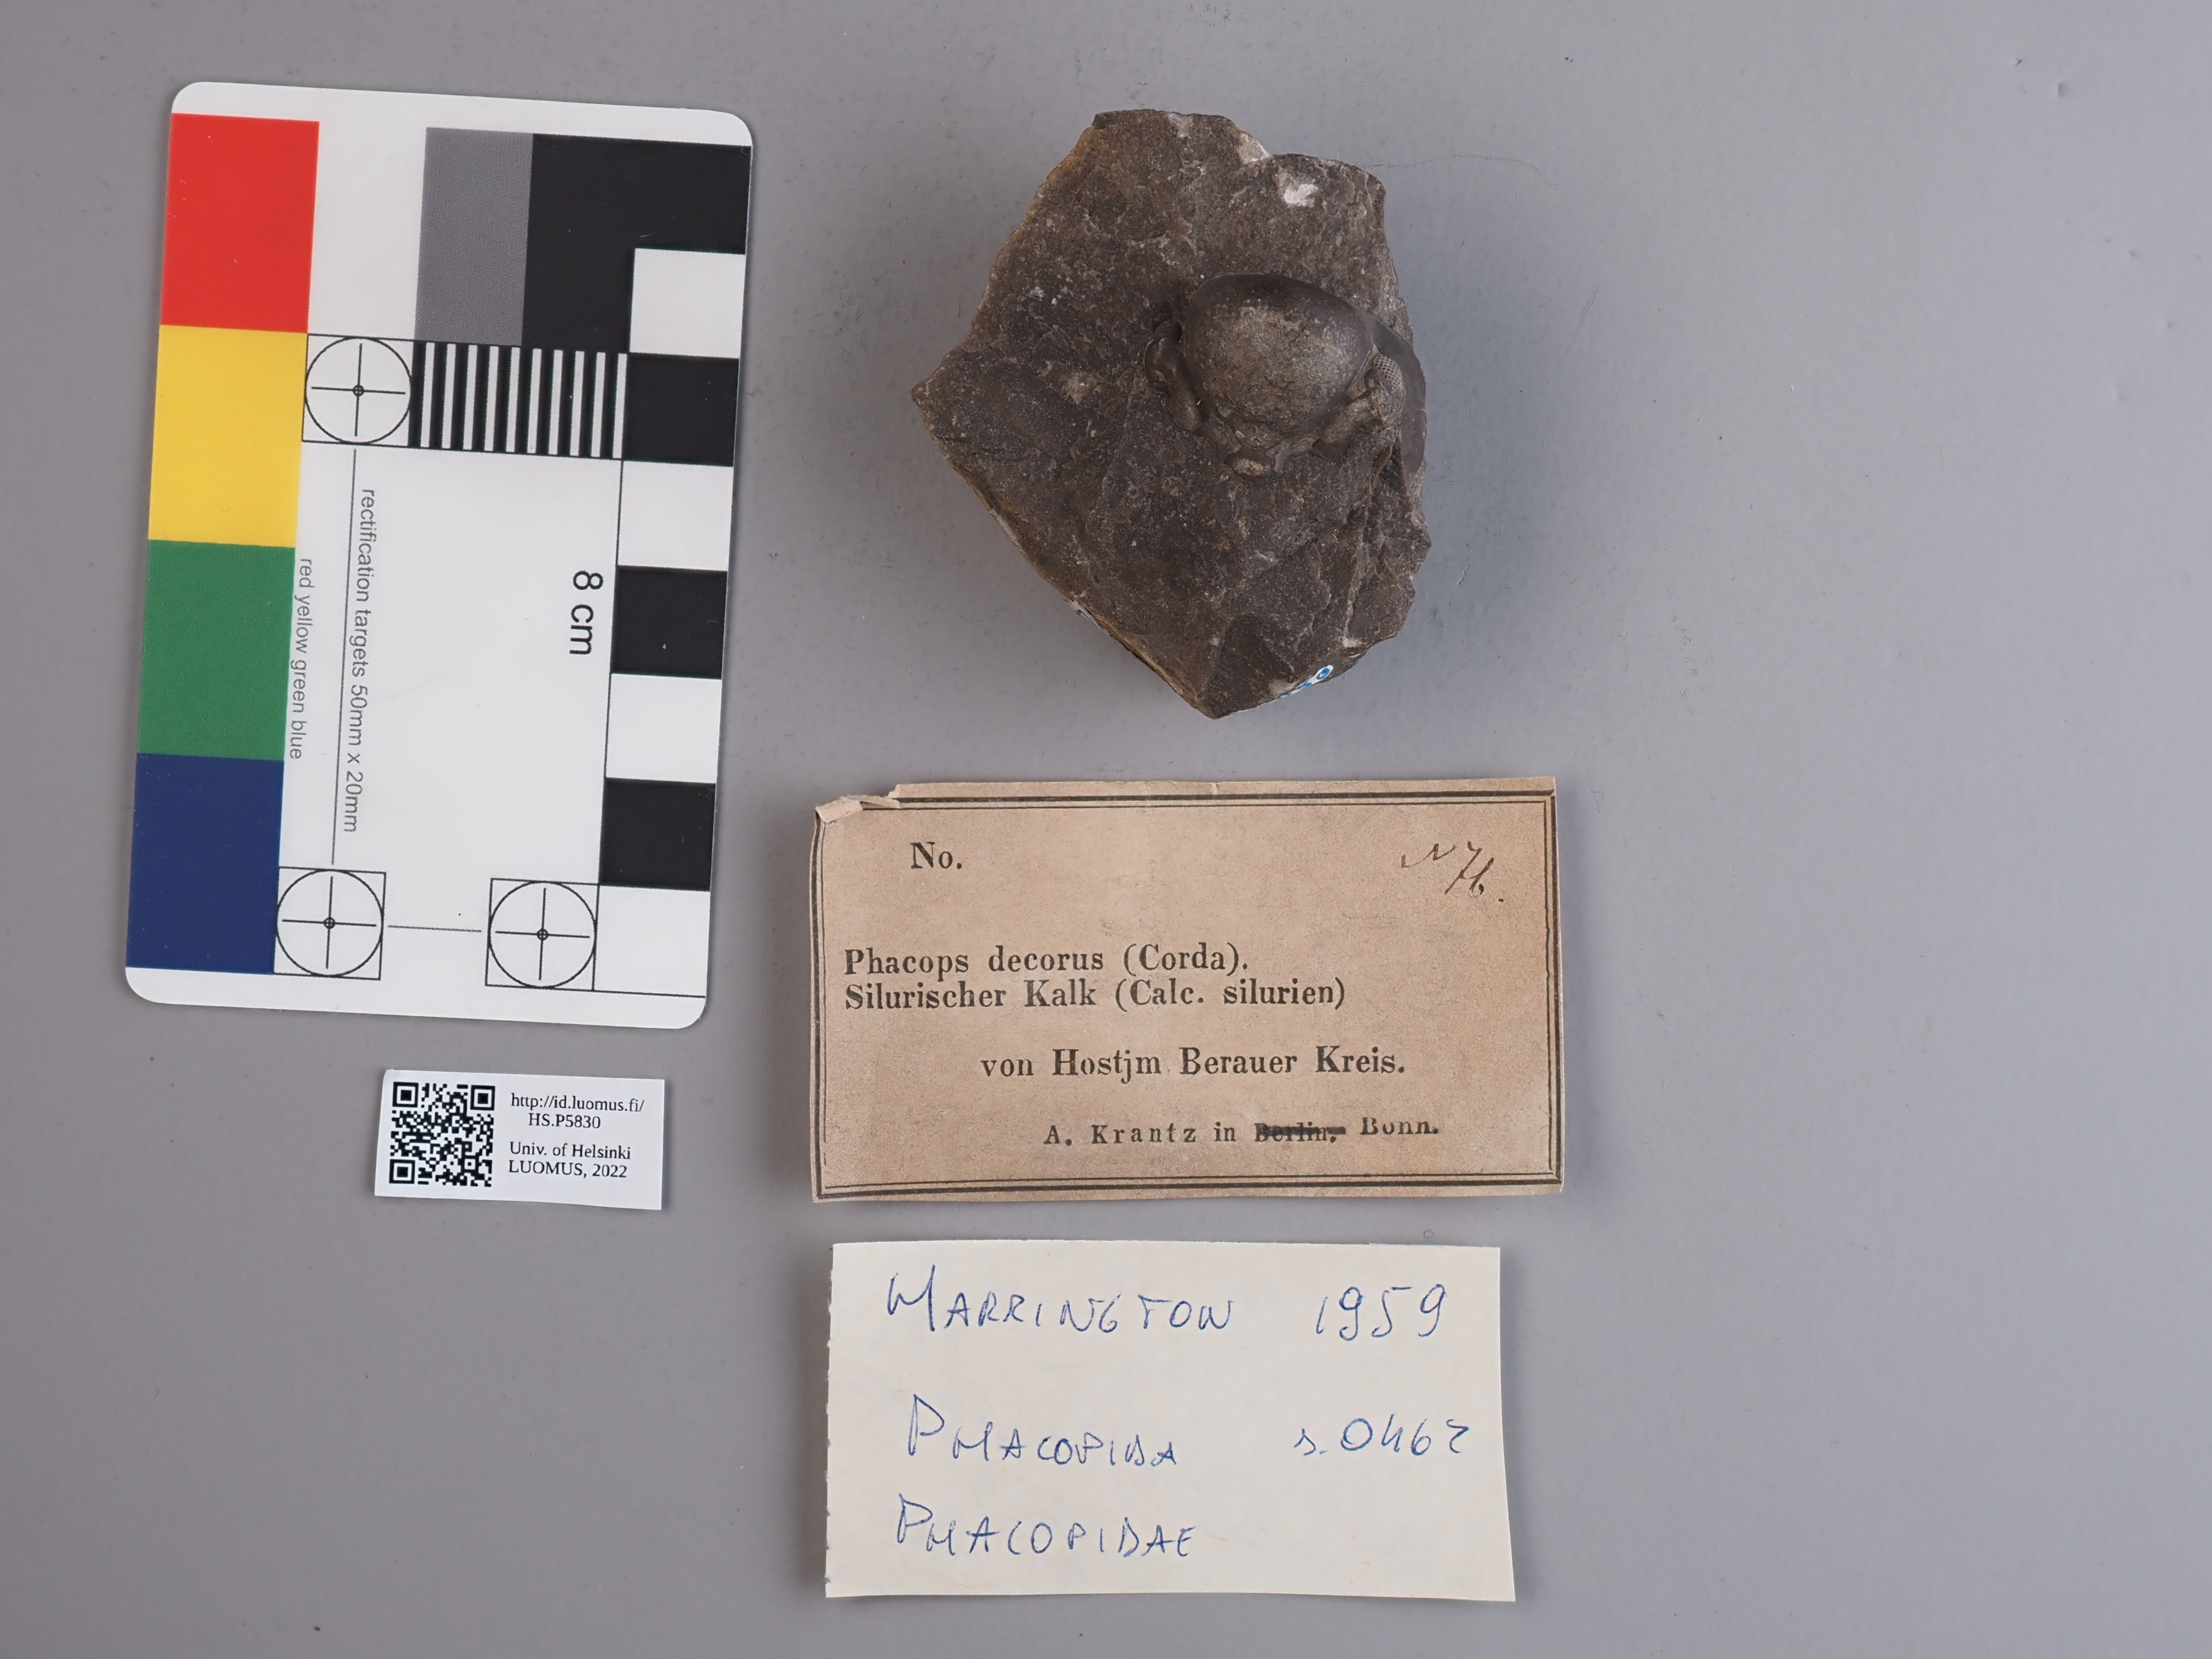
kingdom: Animalia
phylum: Arthropoda
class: Trilobita
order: Phacopida
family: Phacopidae
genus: Phacops
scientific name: Phacops
